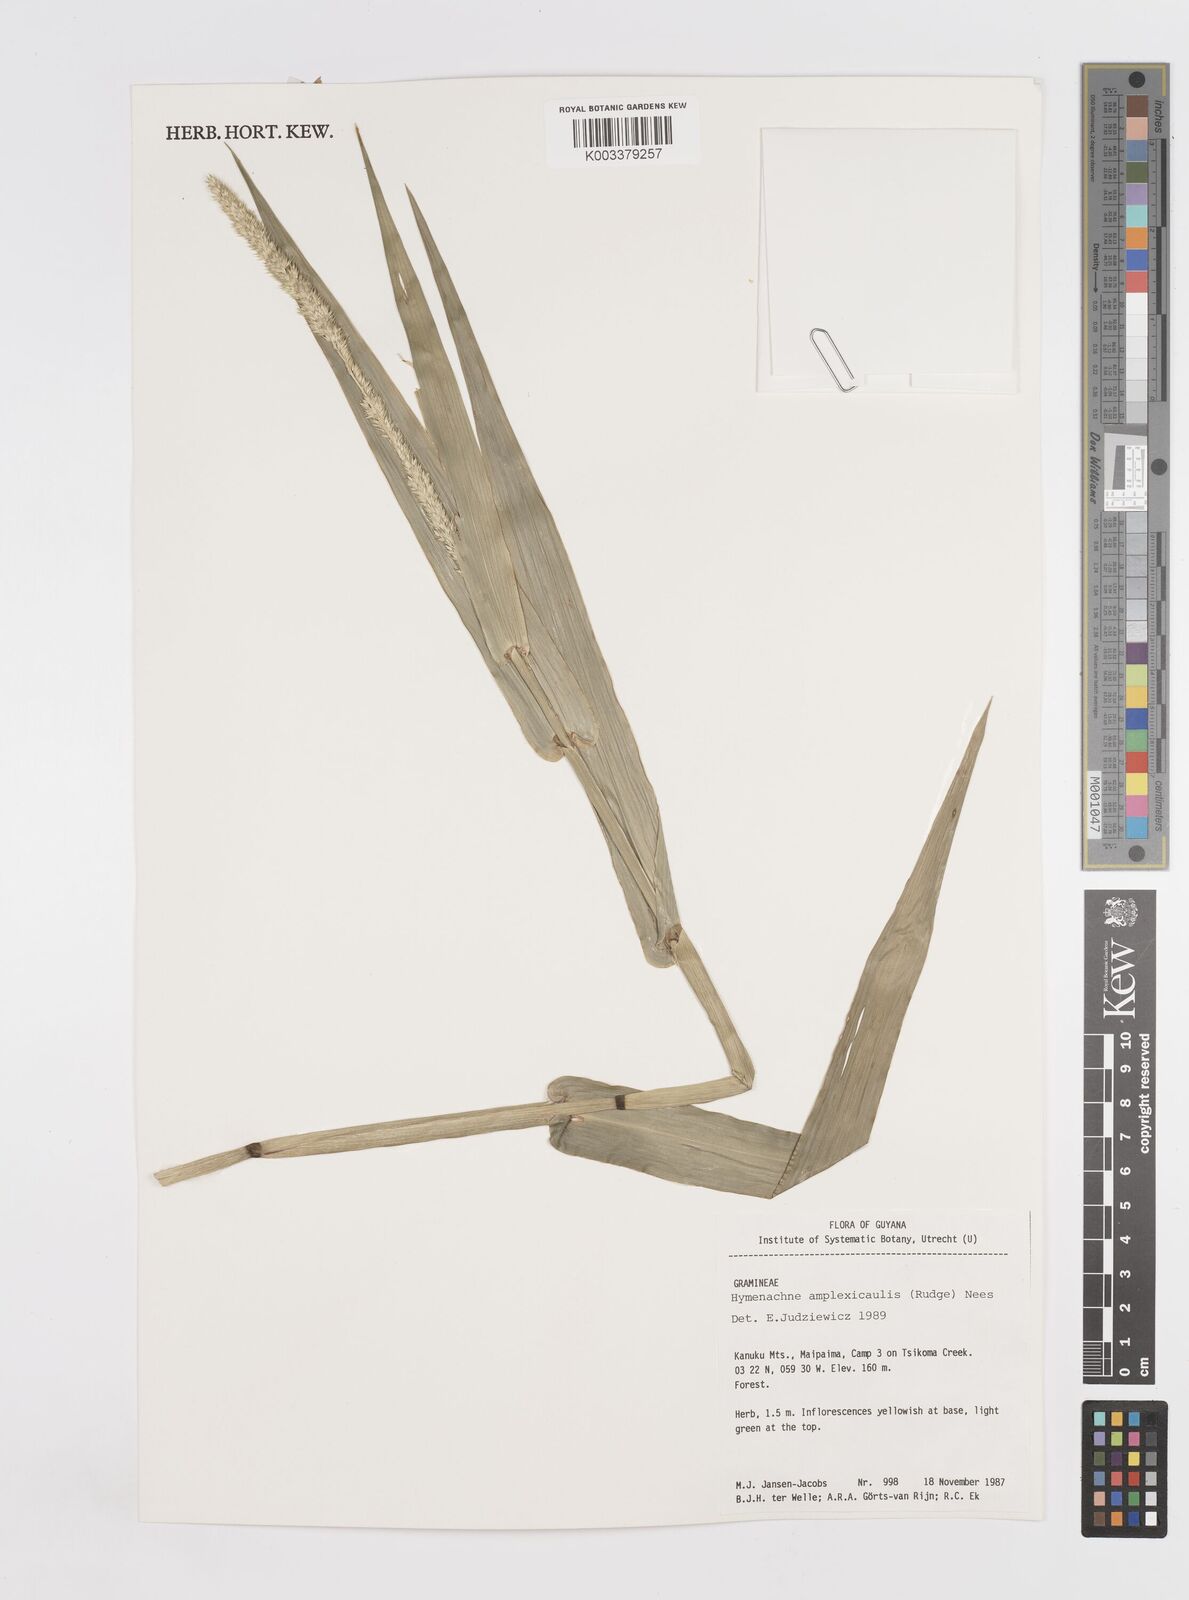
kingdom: Plantae
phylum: Tracheophyta
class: Liliopsida
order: Poales
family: Poaceae
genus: Hymenachne
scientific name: Hymenachne amplexicaulis
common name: Olive hymenachne
